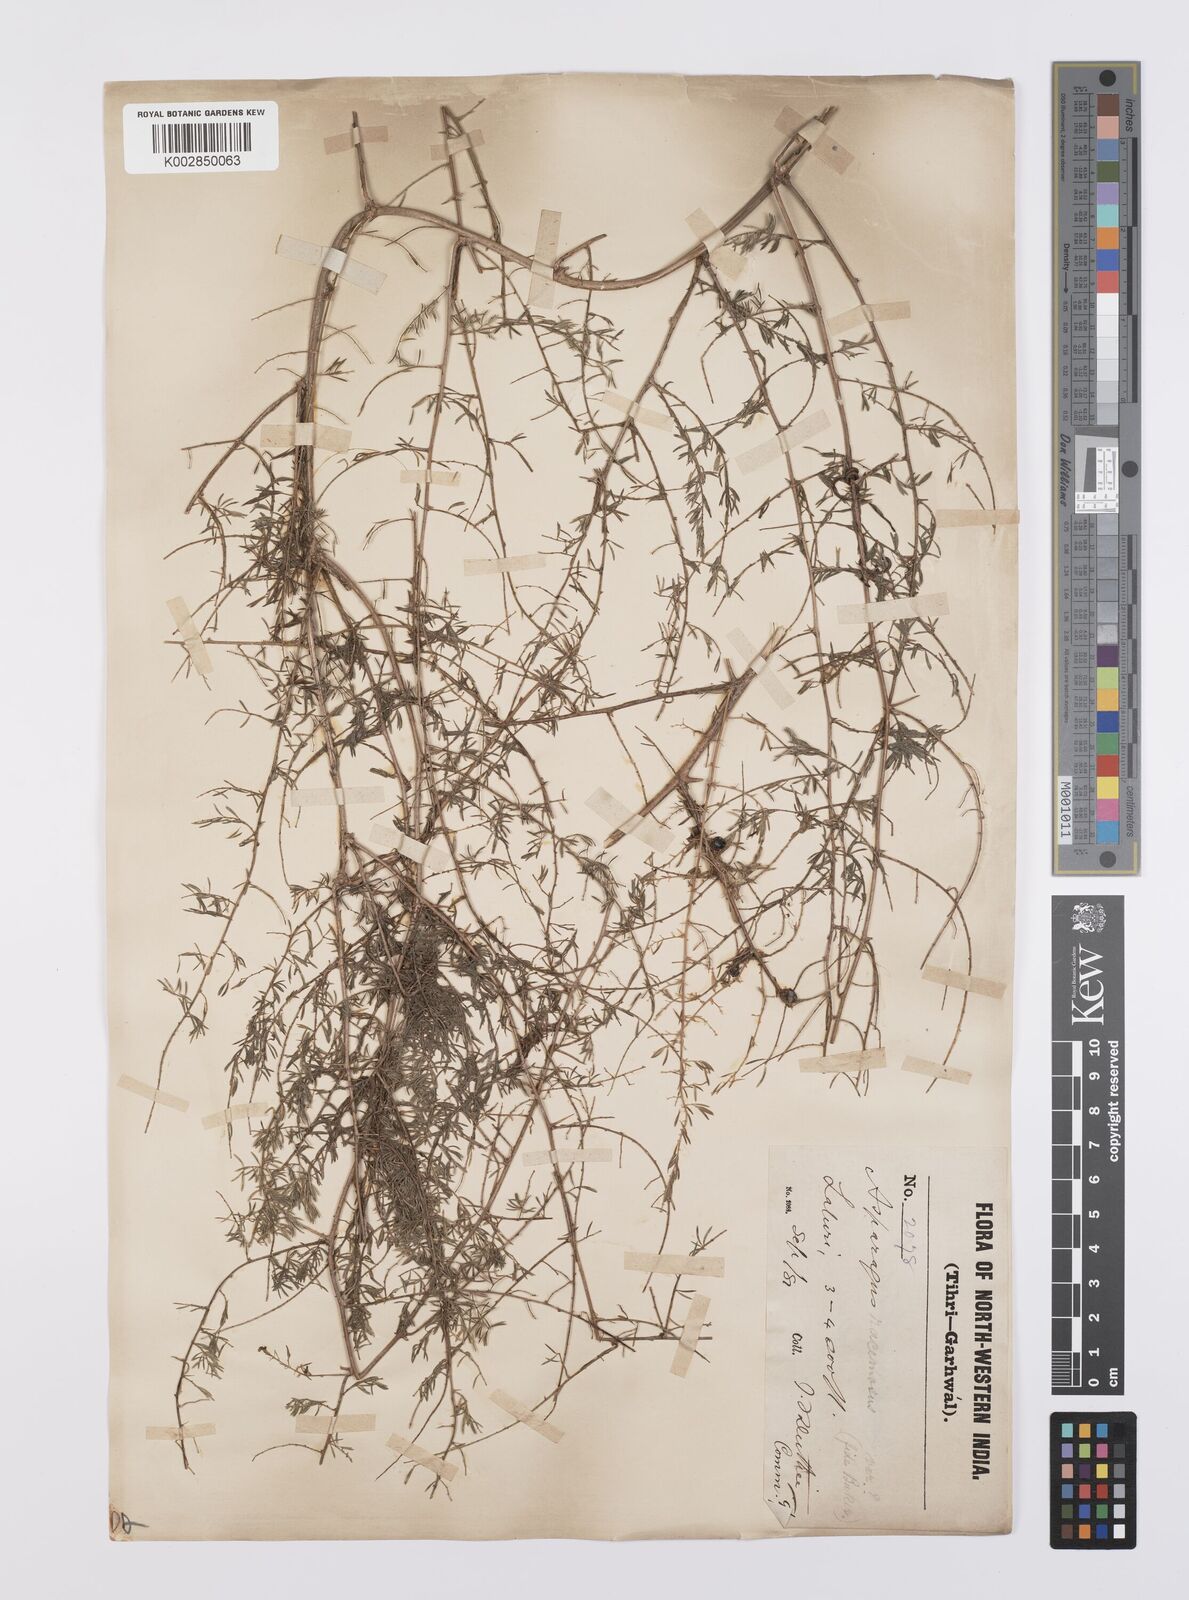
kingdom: Plantae
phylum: Tracheophyta
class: Liliopsida
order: Asparagales
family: Asparagaceae
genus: Asparagus
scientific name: Asparagus racemosus
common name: Asparagus-fern
